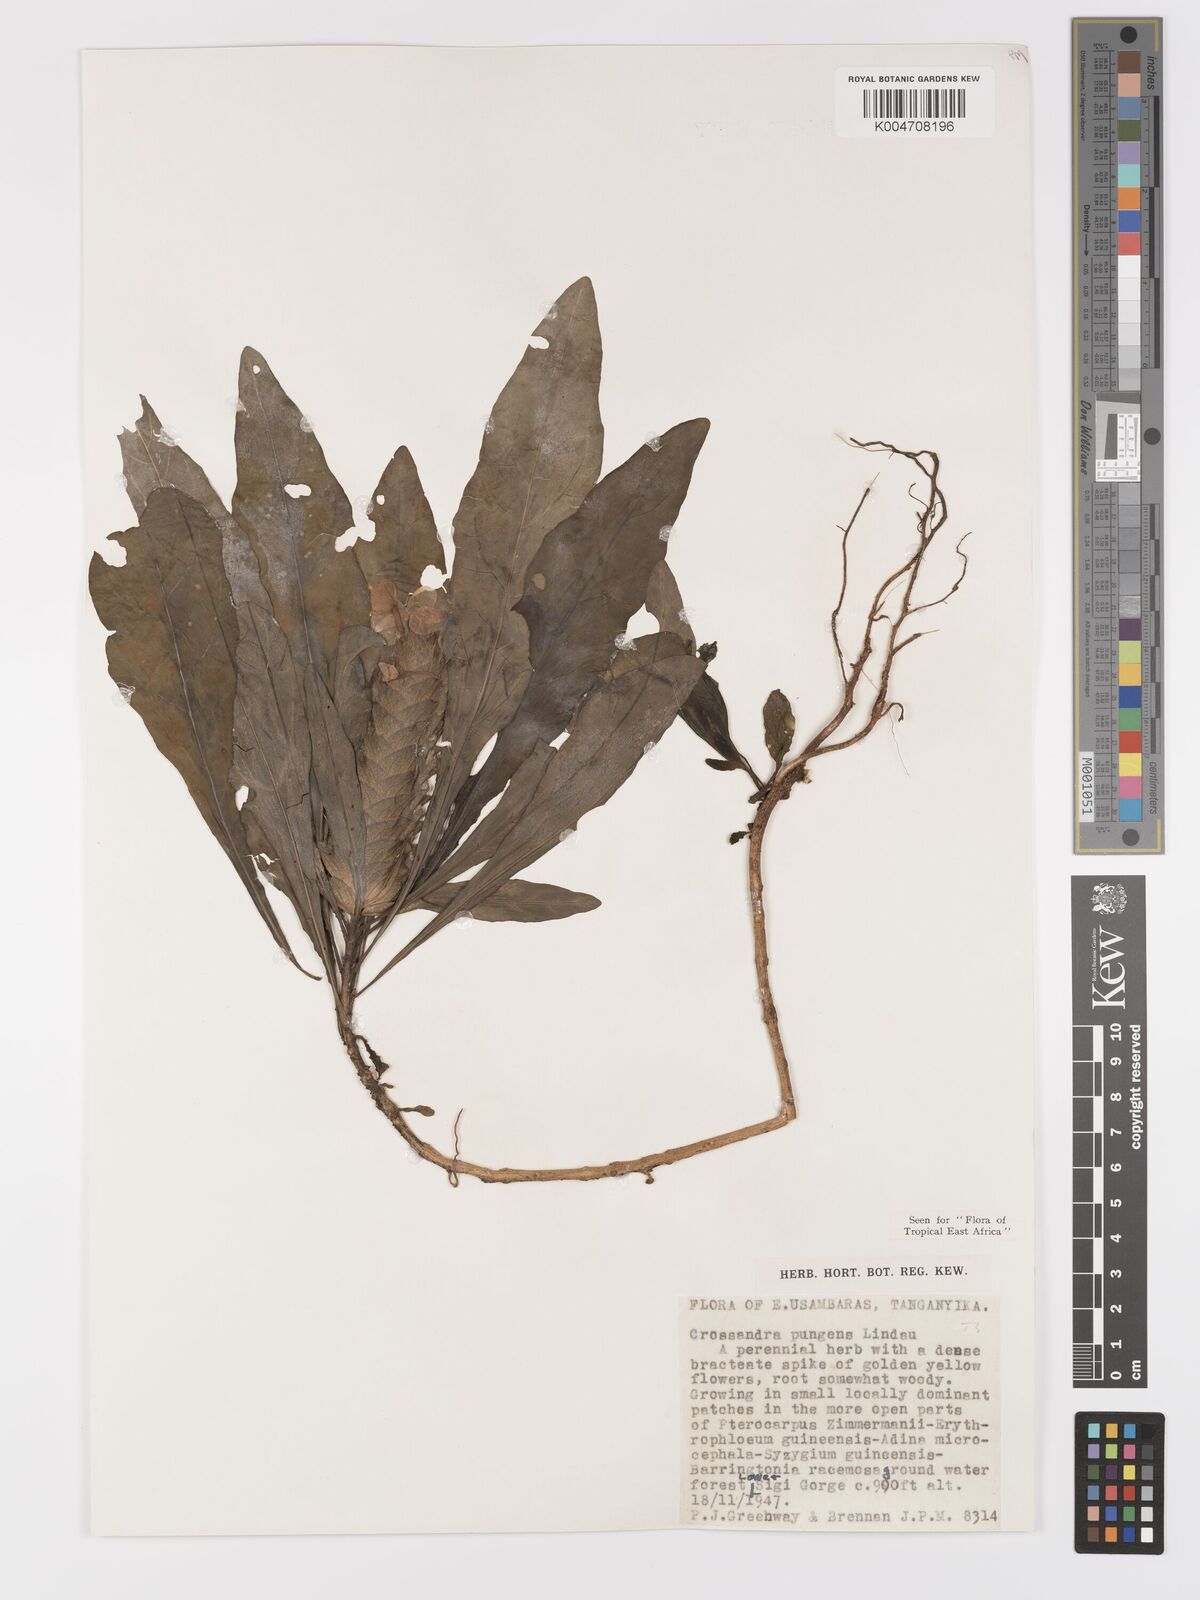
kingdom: Plantae
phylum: Tracheophyta
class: Magnoliopsida
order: Lamiales
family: Acanthaceae
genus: Crossandra
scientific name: Crossandra pungens
